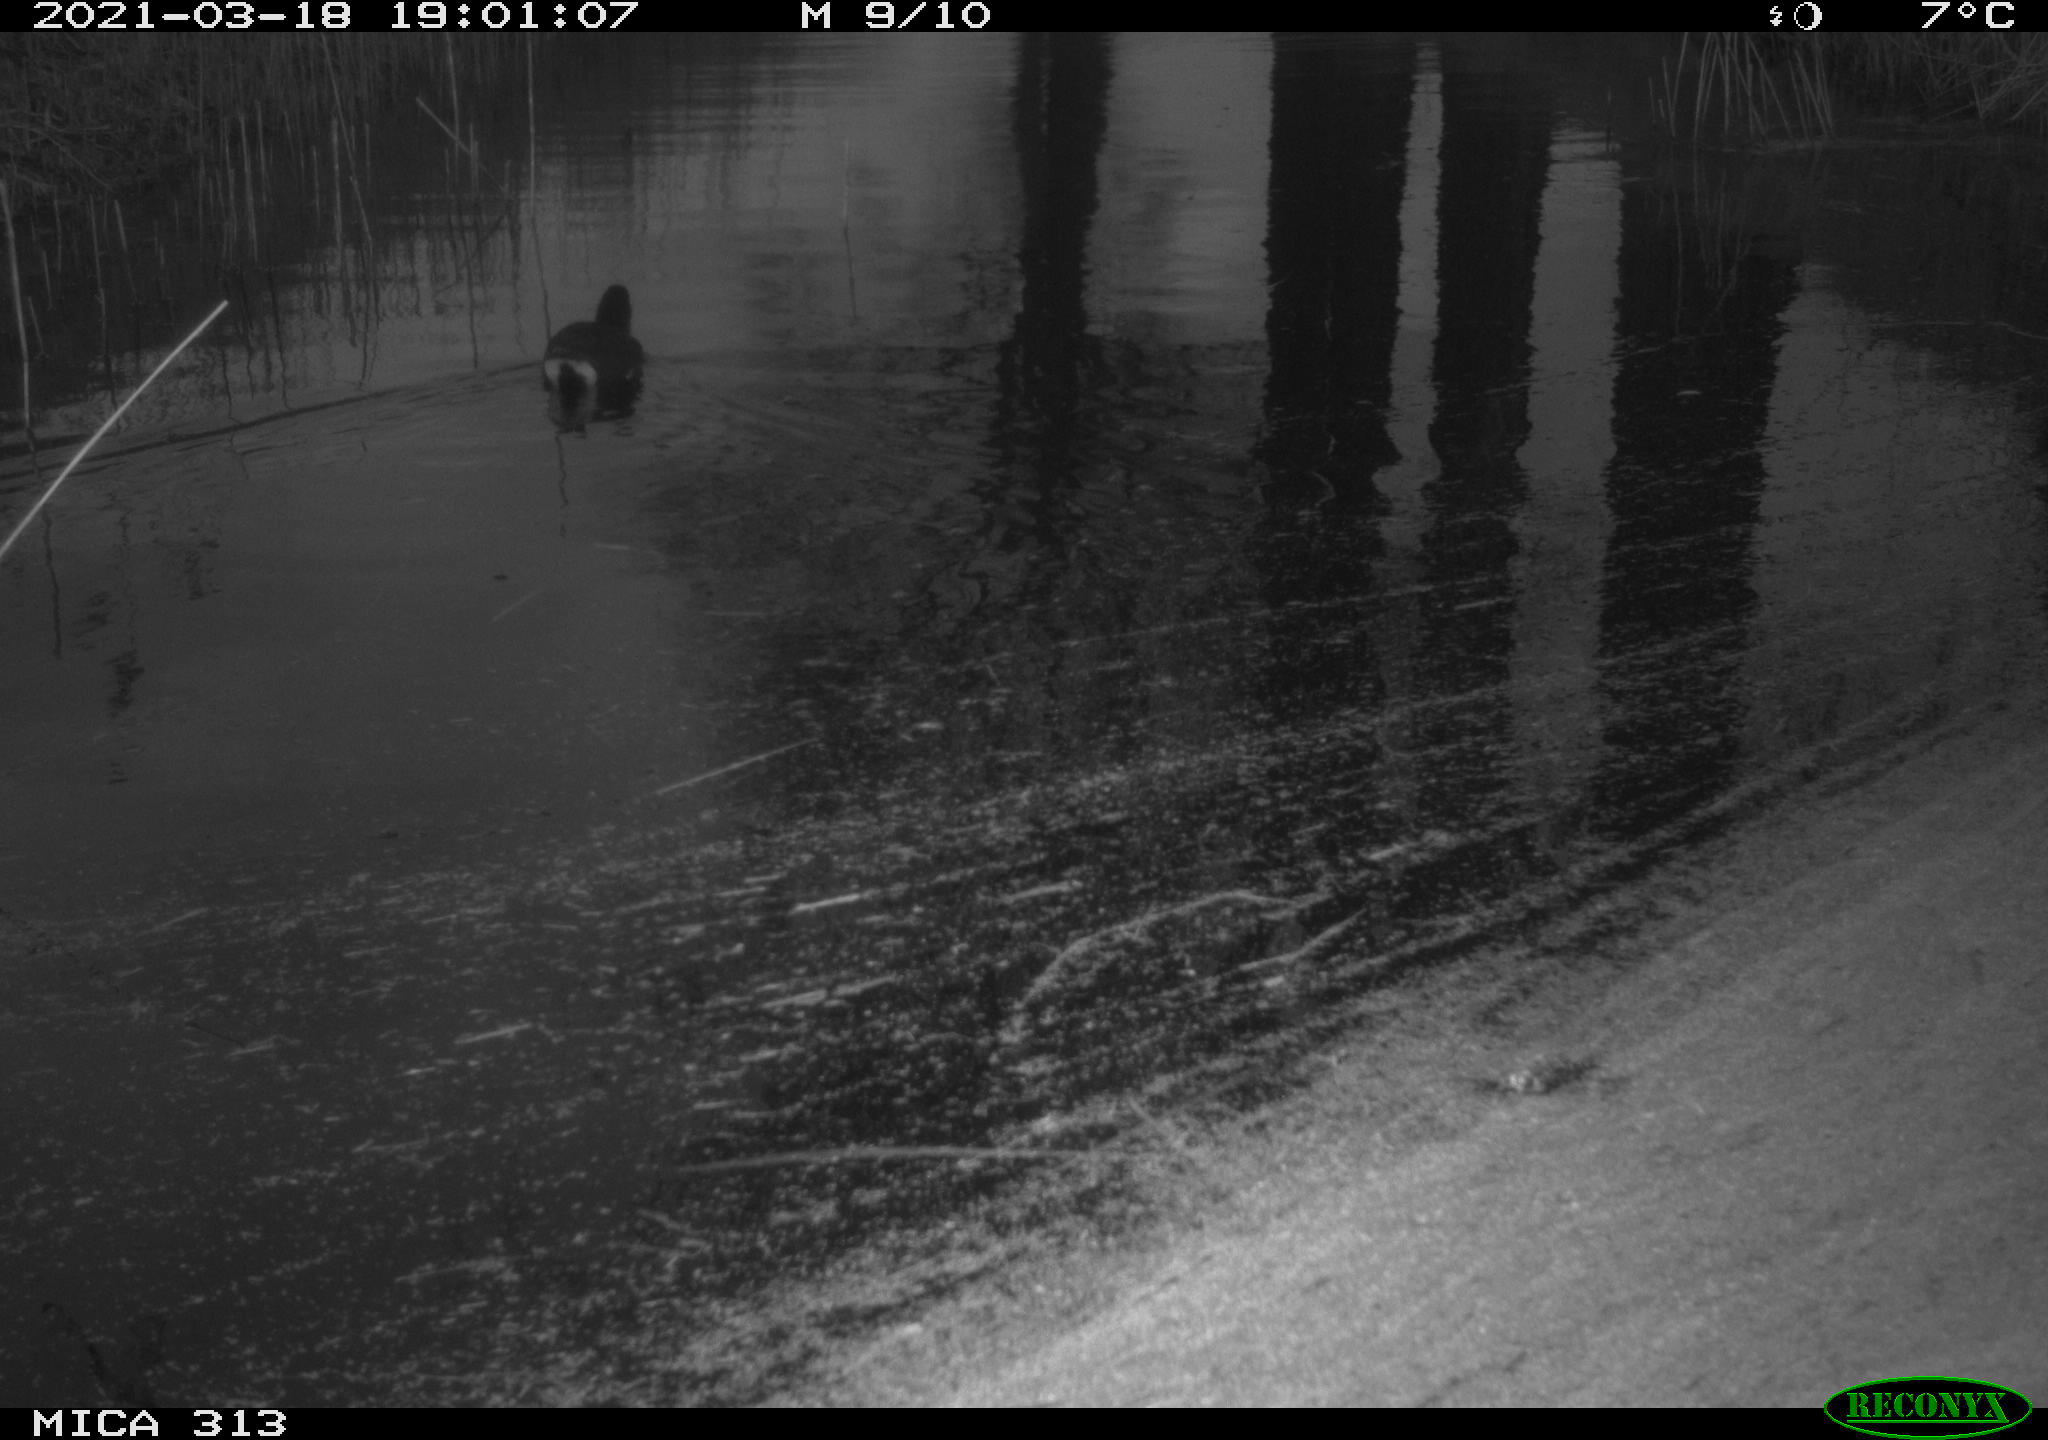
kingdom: Animalia
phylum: Chordata
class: Aves
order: Gruiformes
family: Rallidae
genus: Gallinula
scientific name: Gallinula chloropus
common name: Common moorhen
